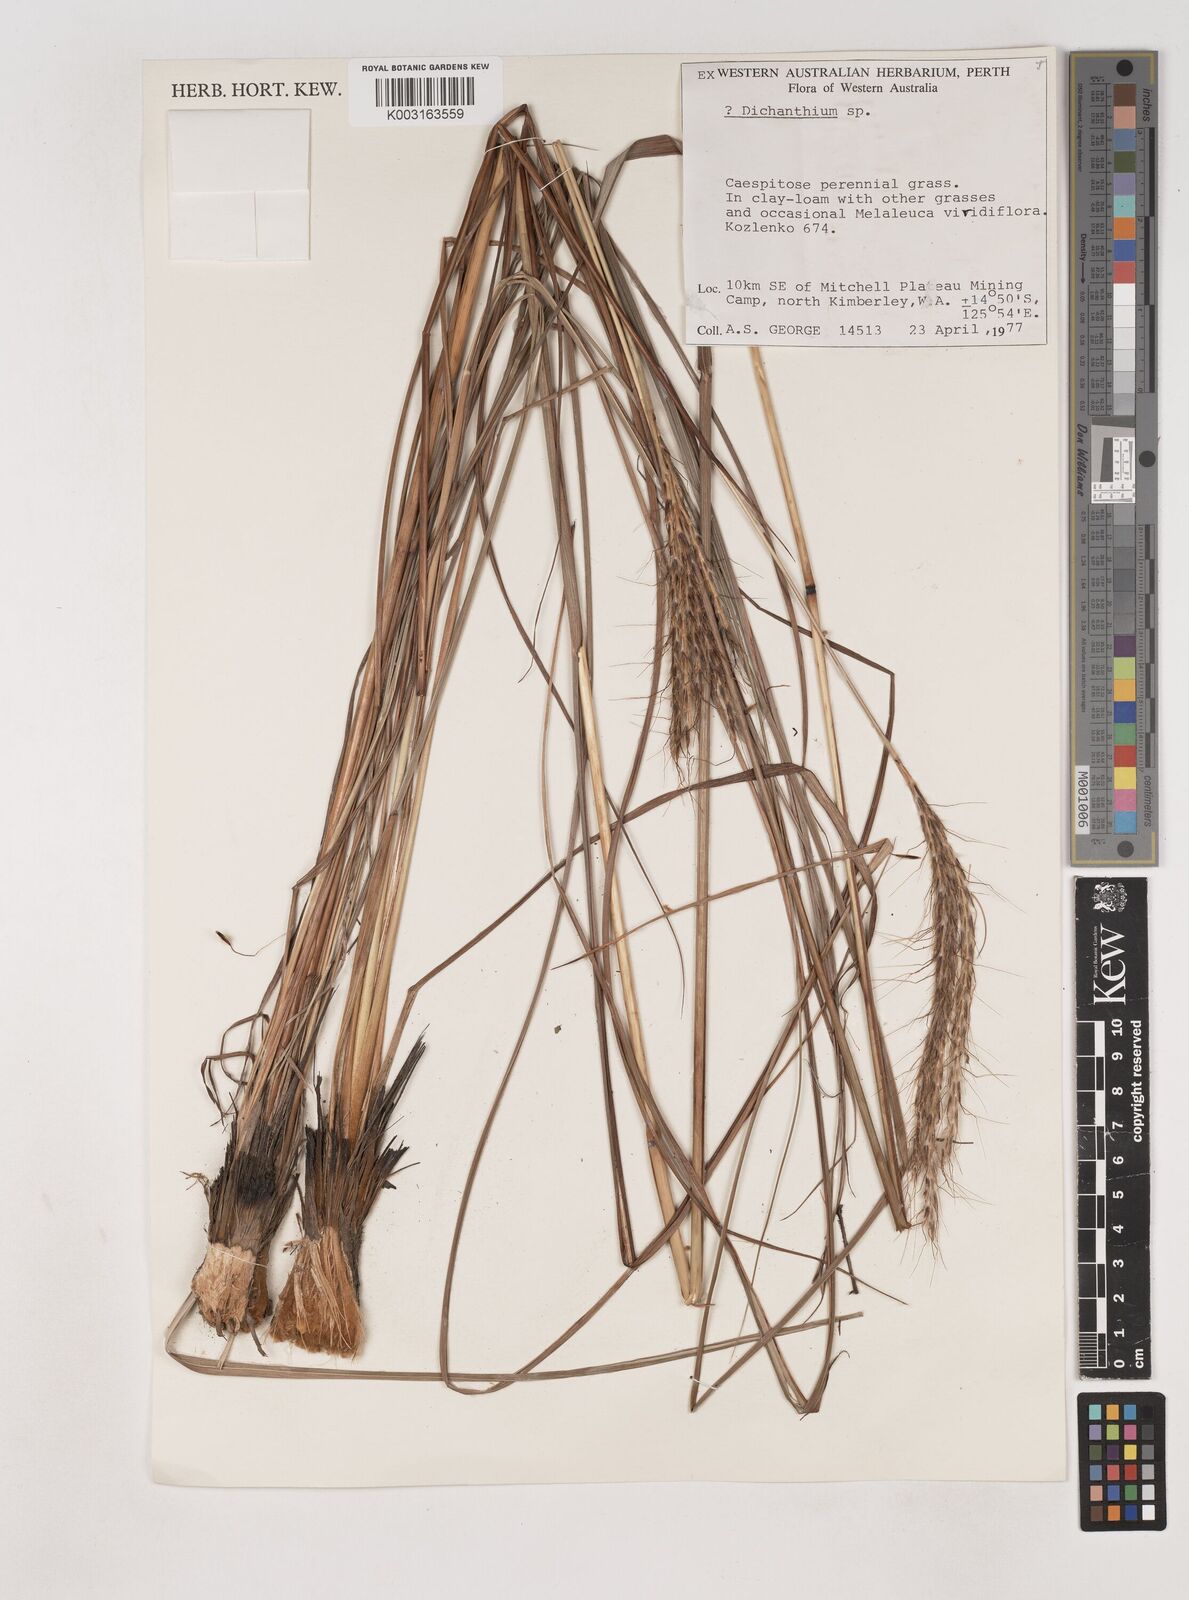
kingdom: Plantae
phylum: Tracheophyta
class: Liliopsida
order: Poales
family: Poaceae
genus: Dichanthium
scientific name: Dichanthium
